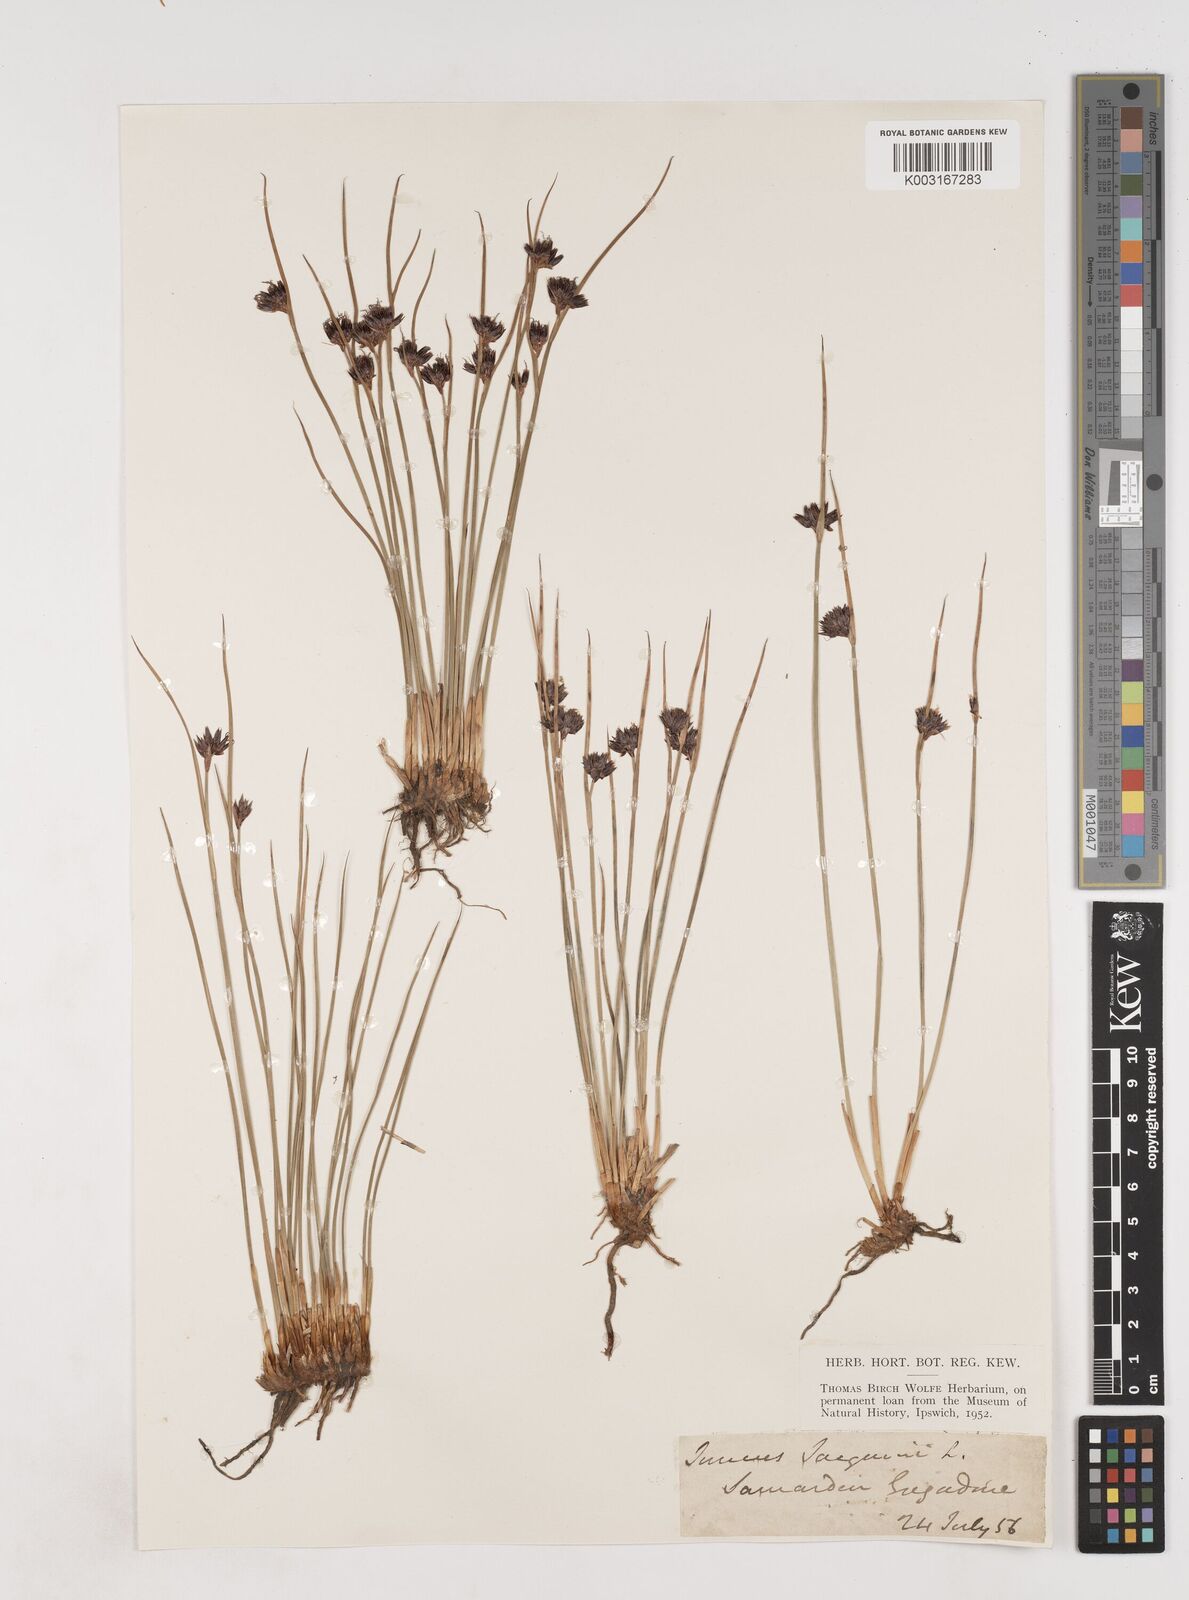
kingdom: Plantae
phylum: Tracheophyta
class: Liliopsida
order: Poales
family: Juncaceae
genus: Juncus
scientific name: Juncus jacquinii
